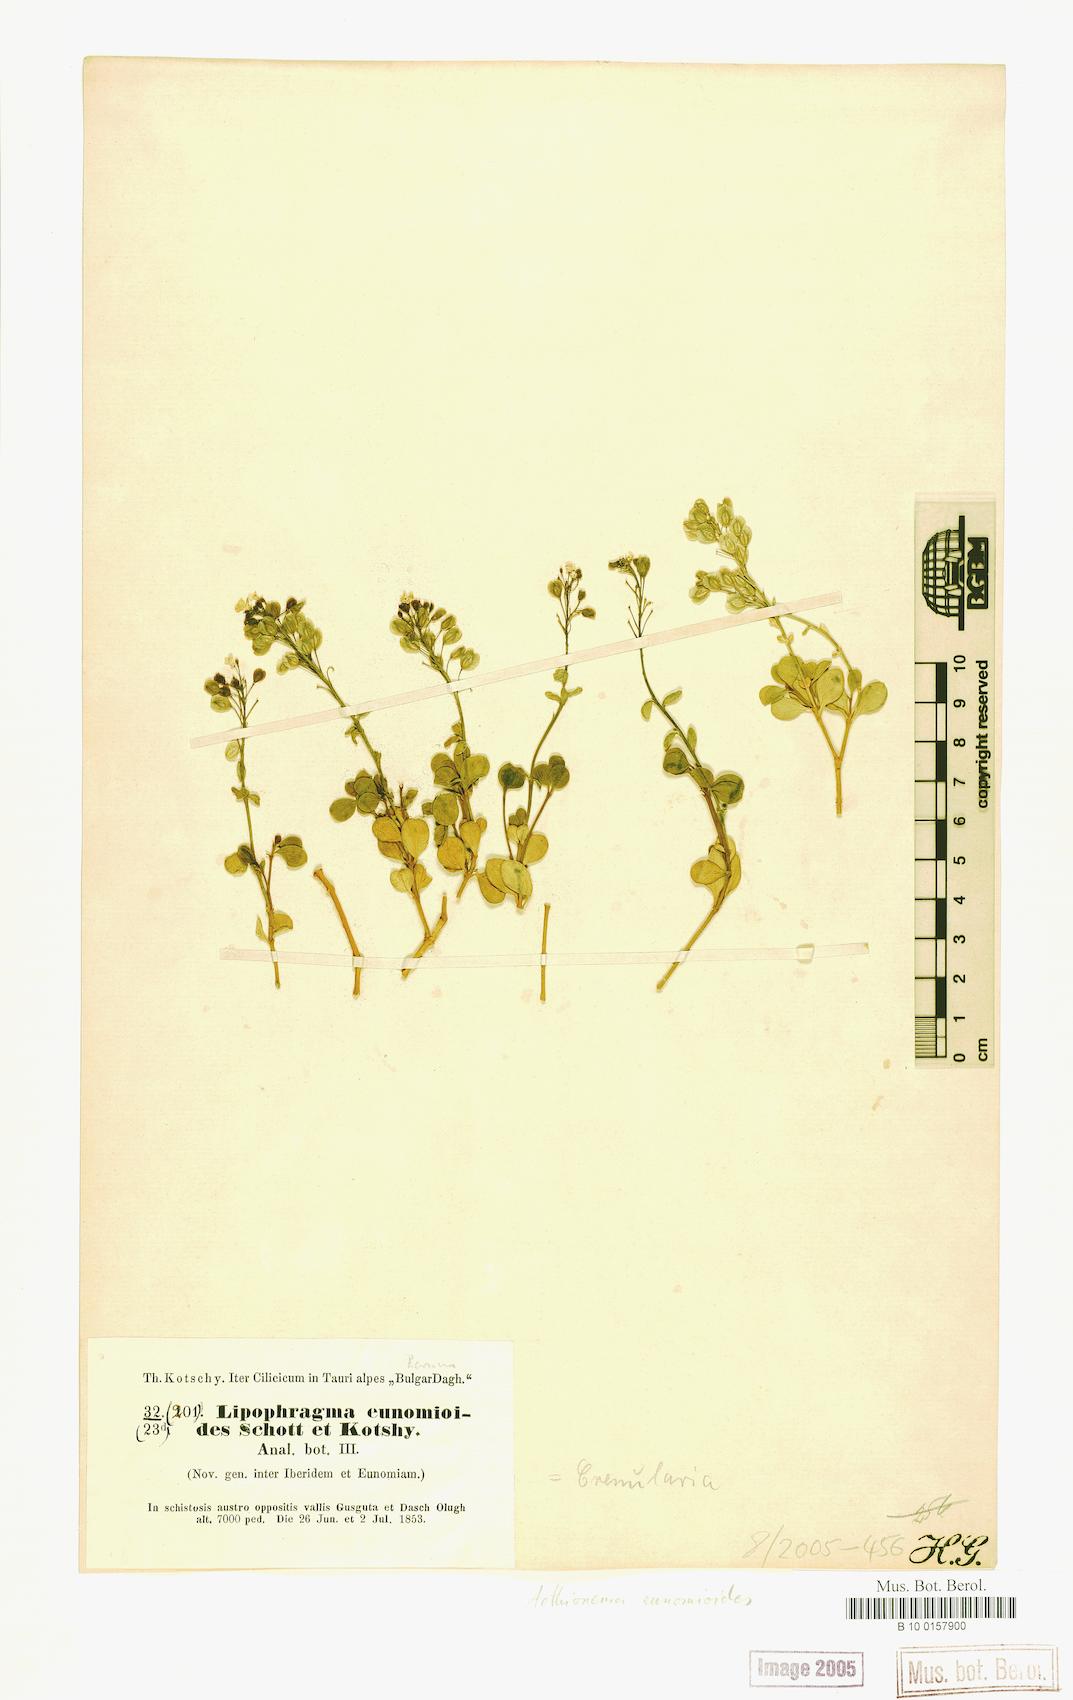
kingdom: Plantae
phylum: Tracheophyta
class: Magnoliopsida
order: Brassicales
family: Brassicaceae
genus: Aethionema
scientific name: Aethionema eunomioides
